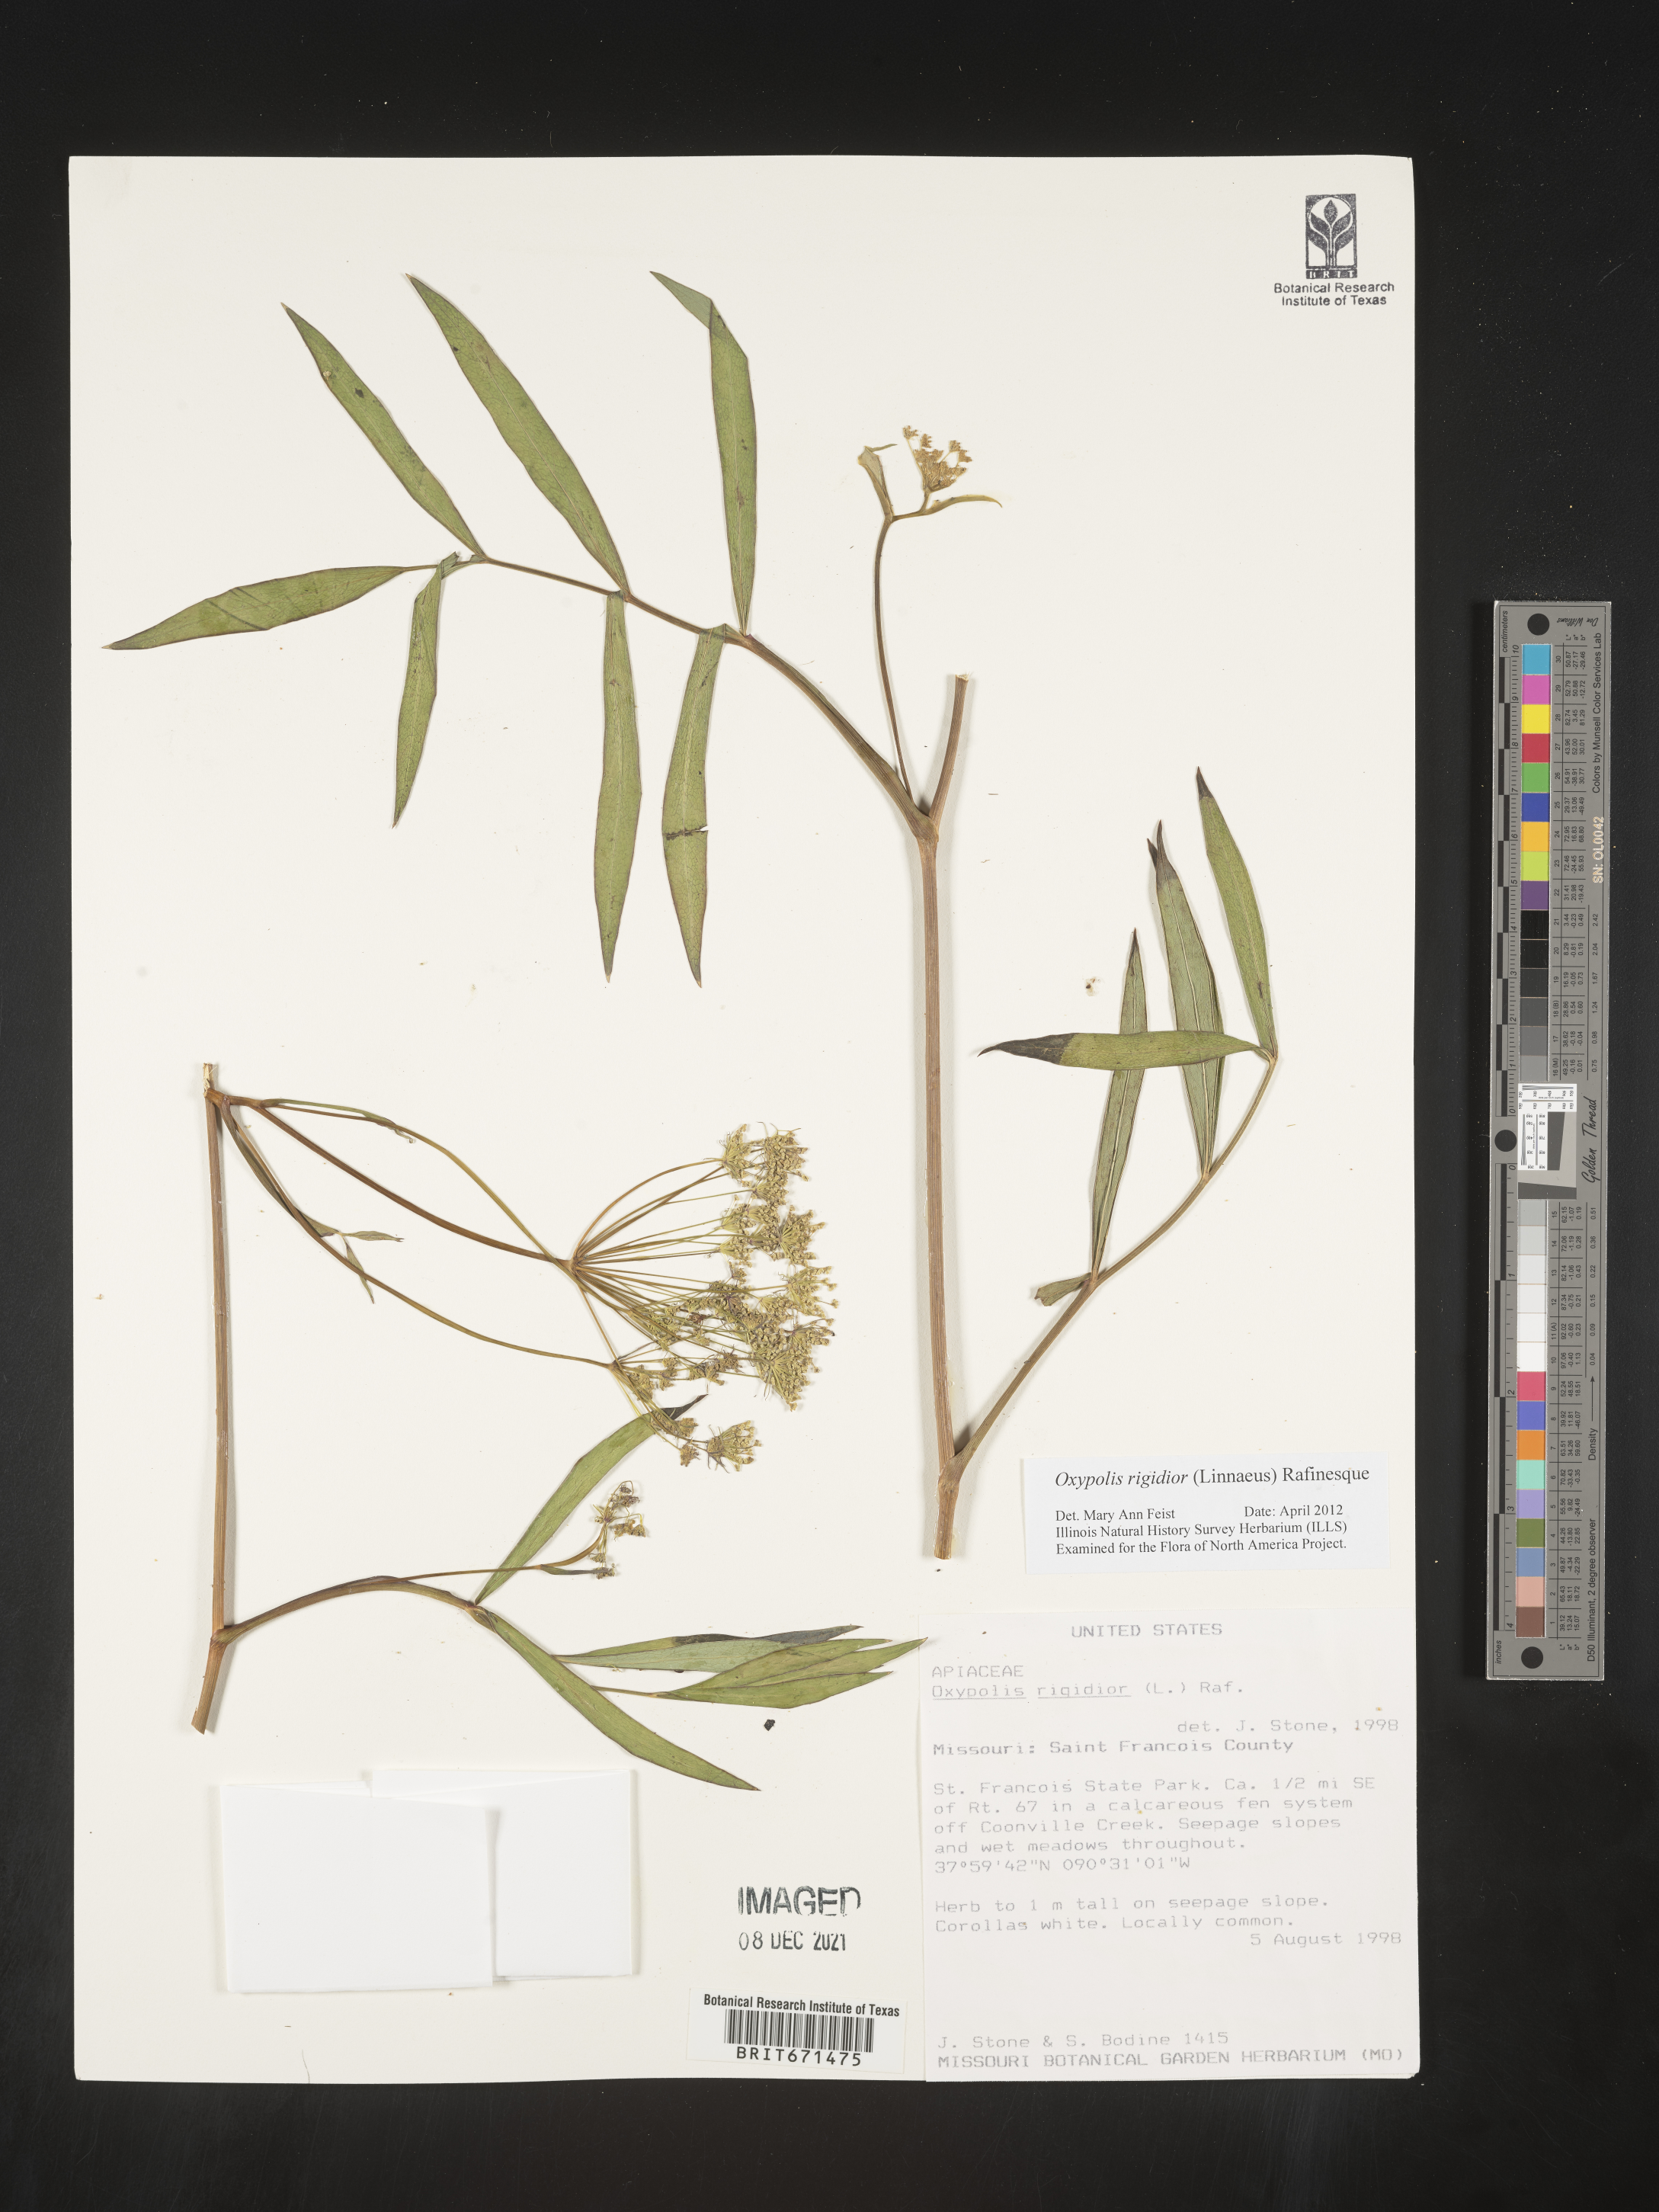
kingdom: Plantae
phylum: Tracheophyta
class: Magnoliopsida
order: Apiales
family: Apiaceae
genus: Oxypolis
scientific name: Oxypolis rigidior
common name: Cowbane
